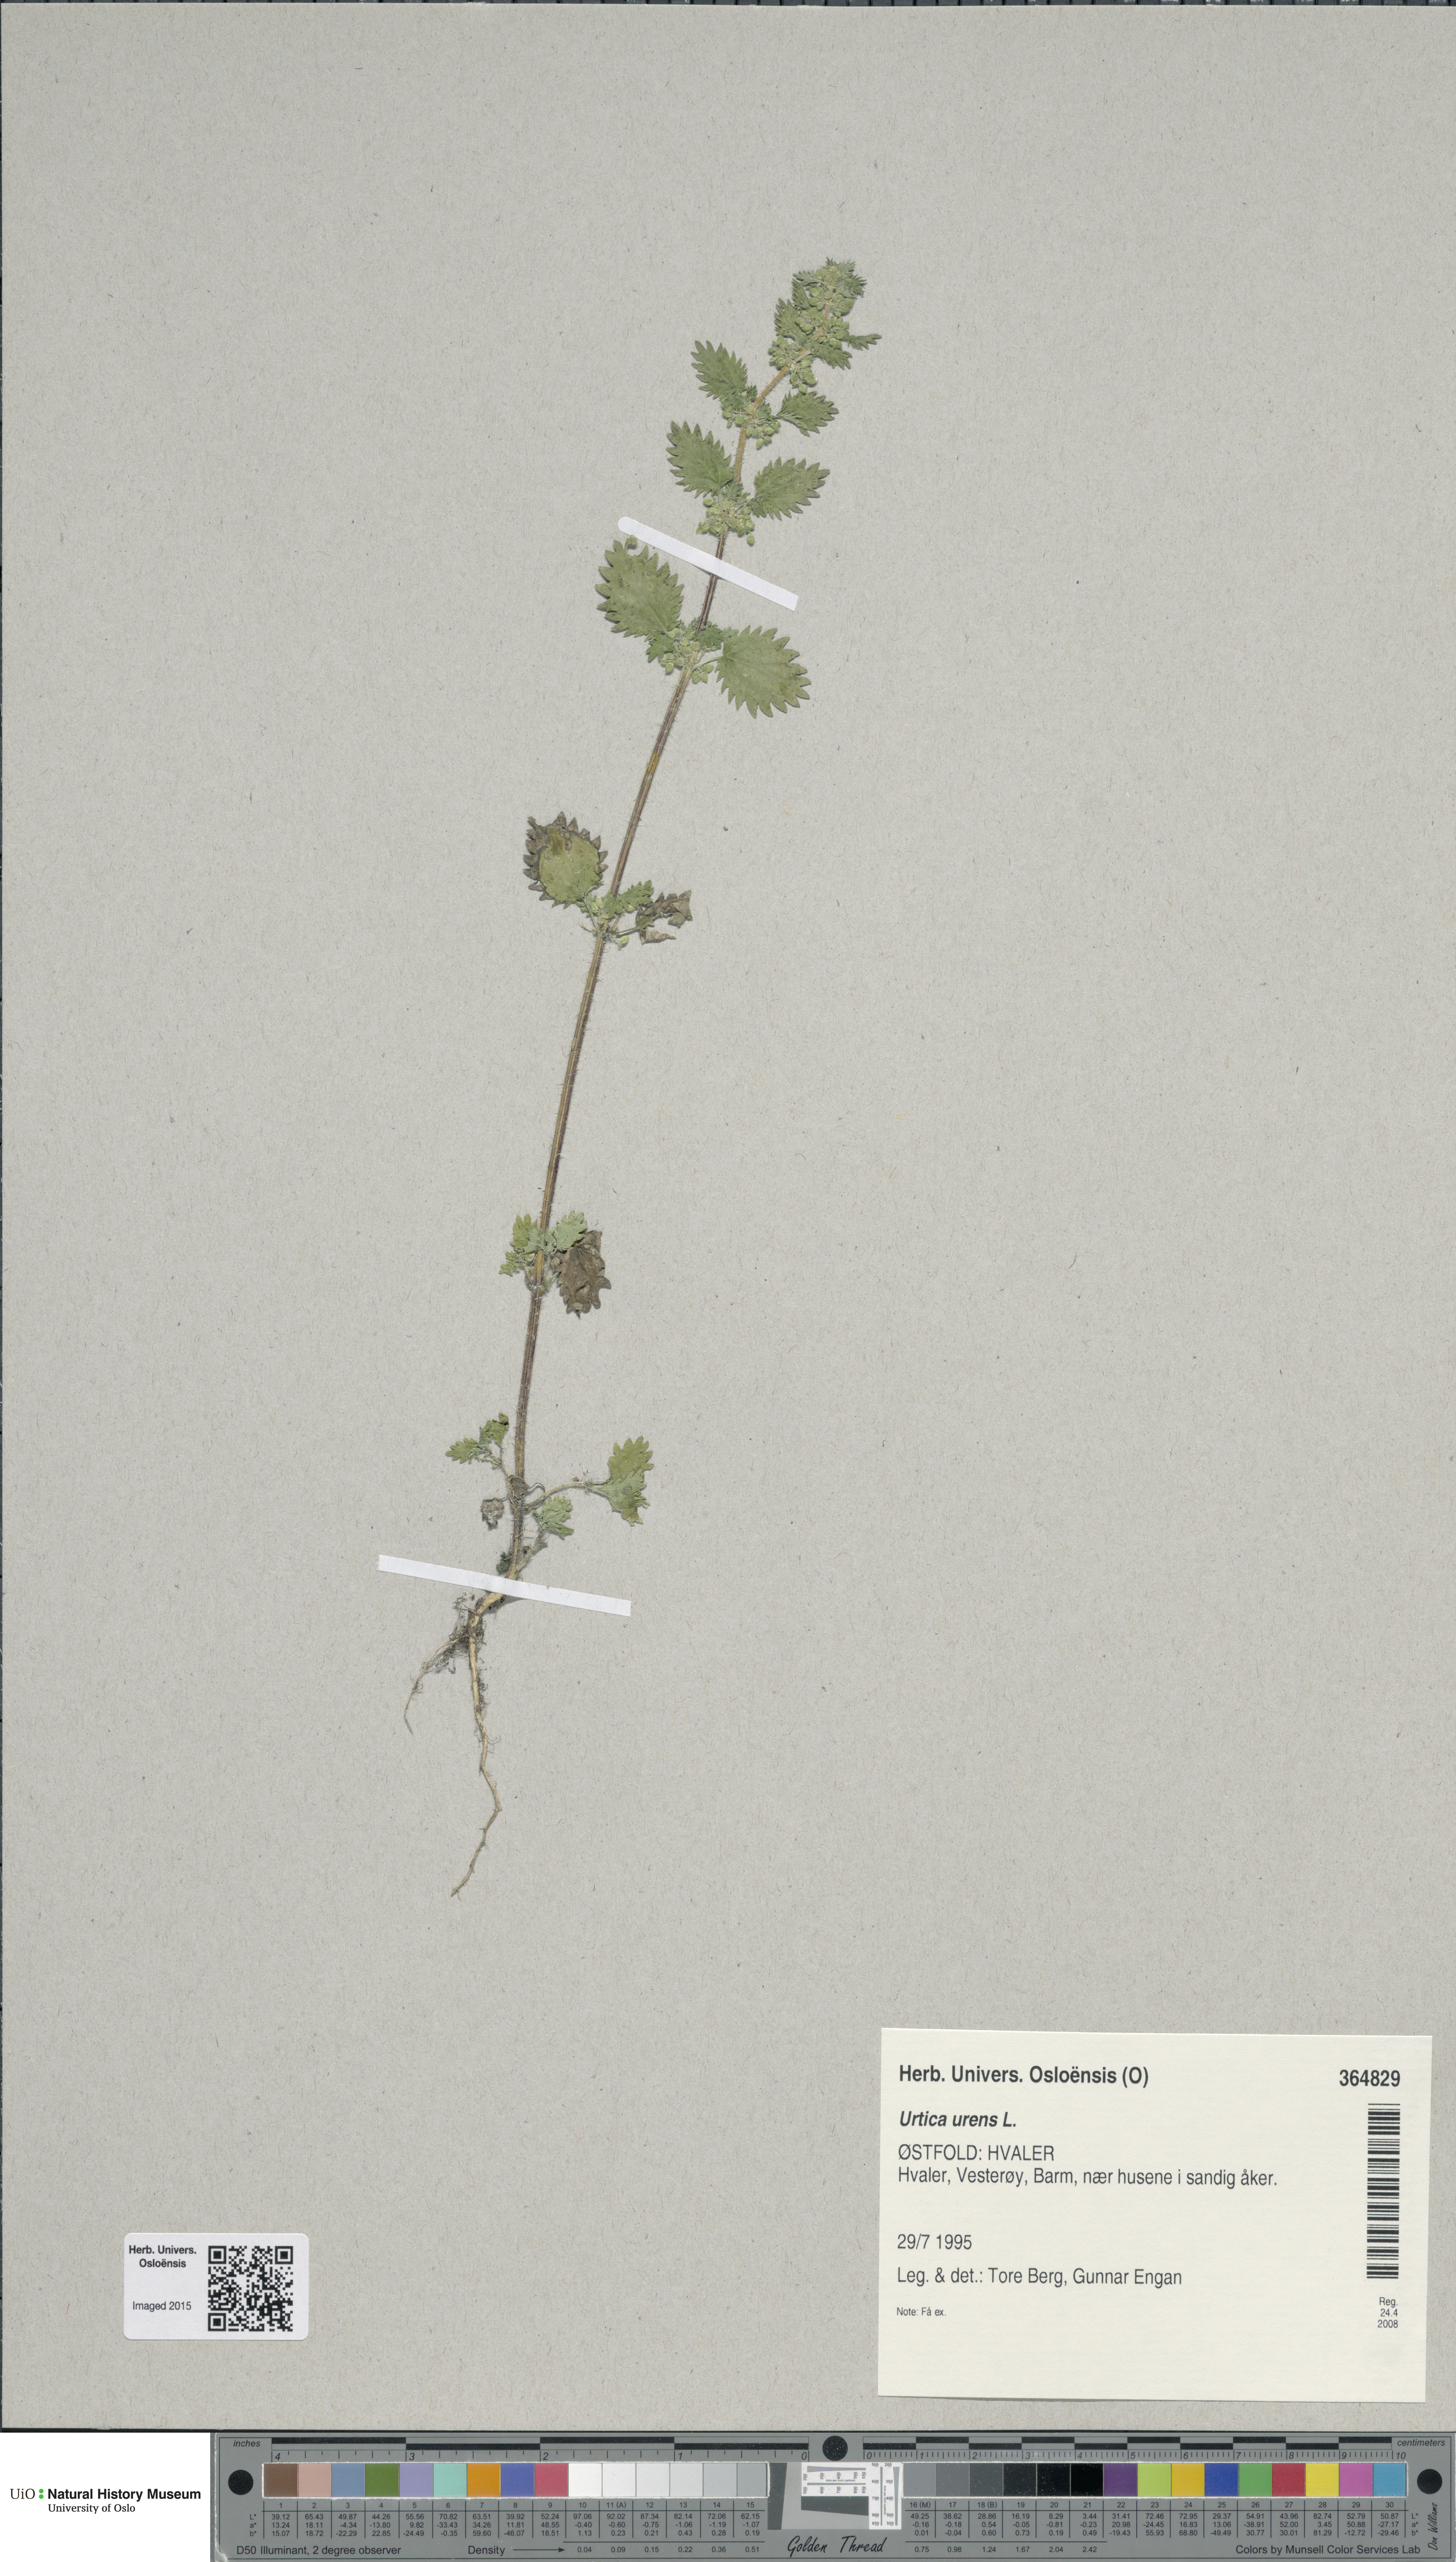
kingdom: Plantae
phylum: Tracheophyta
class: Magnoliopsida
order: Rosales
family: Urticaceae
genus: Urtica
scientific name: Urtica urens
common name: Dwarf nettle
